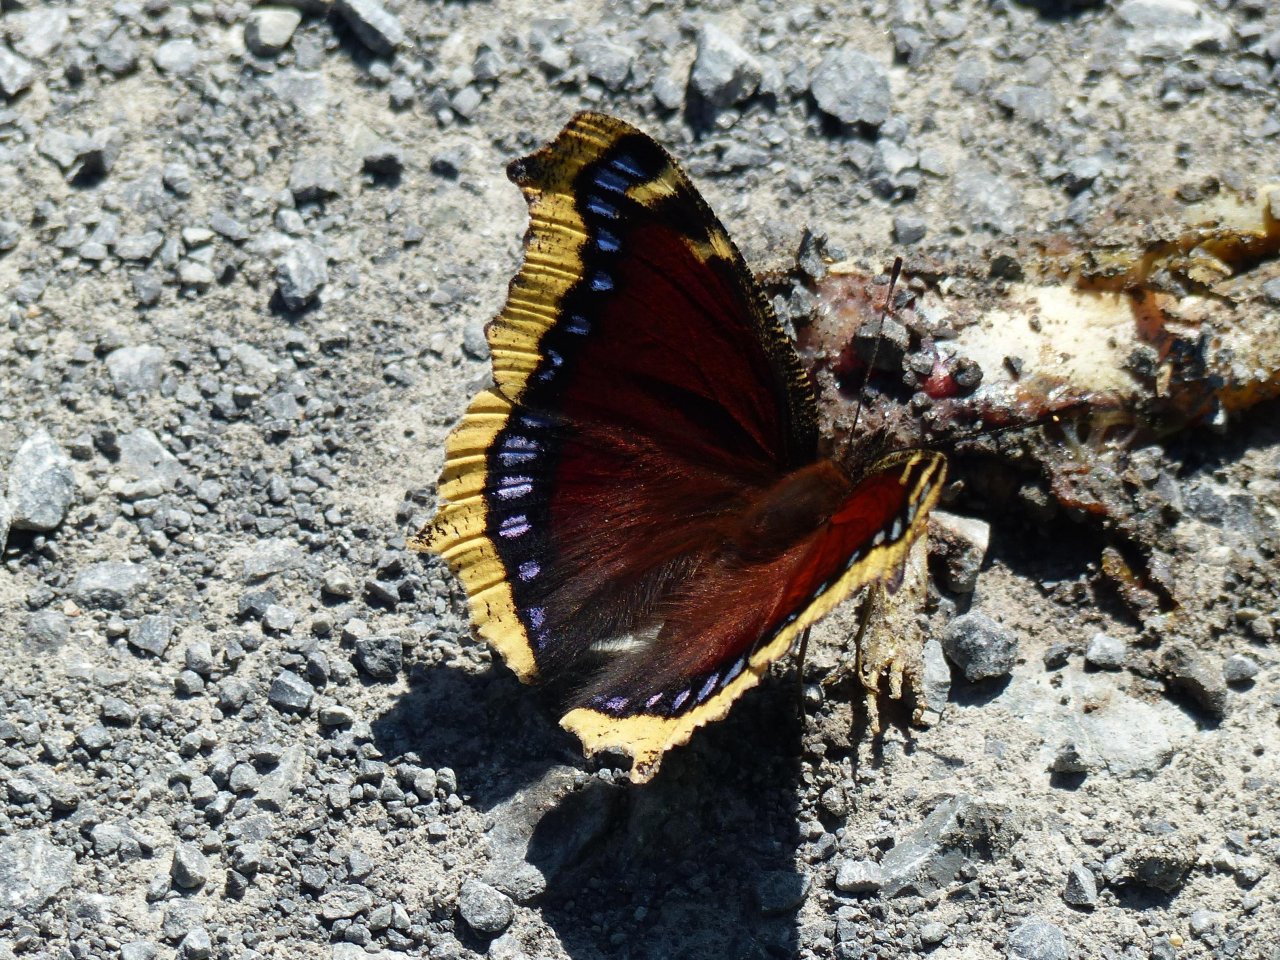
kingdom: Animalia
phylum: Arthropoda
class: Insecta
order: Lepidoptera
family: Nymphalidae
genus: Nymphalis
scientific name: Nymphalis antiopa
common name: Mourning Cloak
